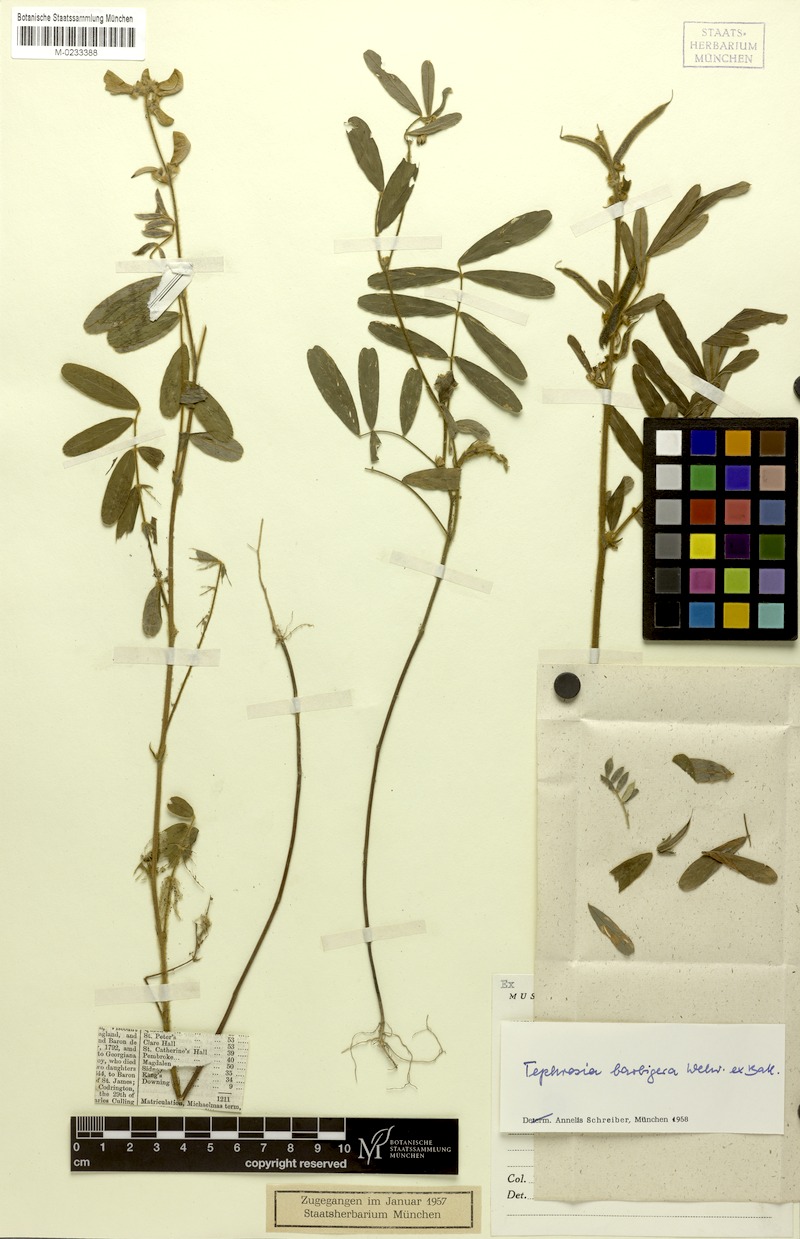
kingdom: Plantae
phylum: Tracheophyta
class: Magnoliopsida
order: Fabales
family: Fabaceae
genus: Tephrosia
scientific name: Tephrosia nana
